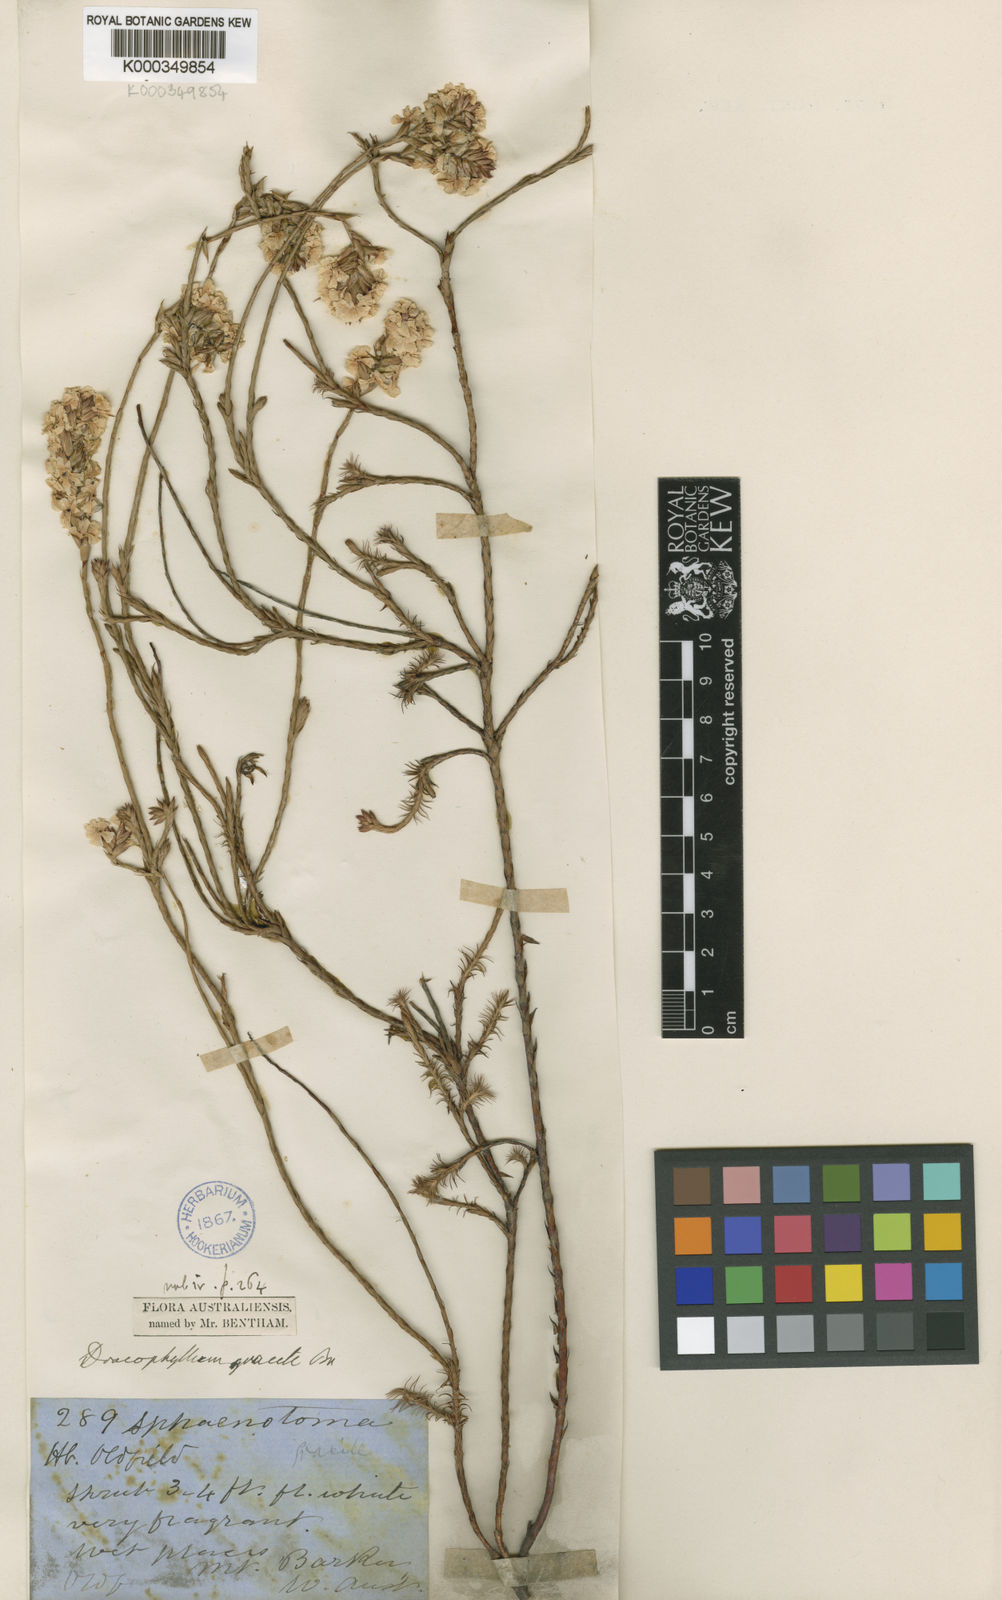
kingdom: Plantae
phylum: Tracheophyta
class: Magnoliopsida
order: Ericales
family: Ericaceae
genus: Dracophyllum
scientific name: Dracophyllum cosmelioides
